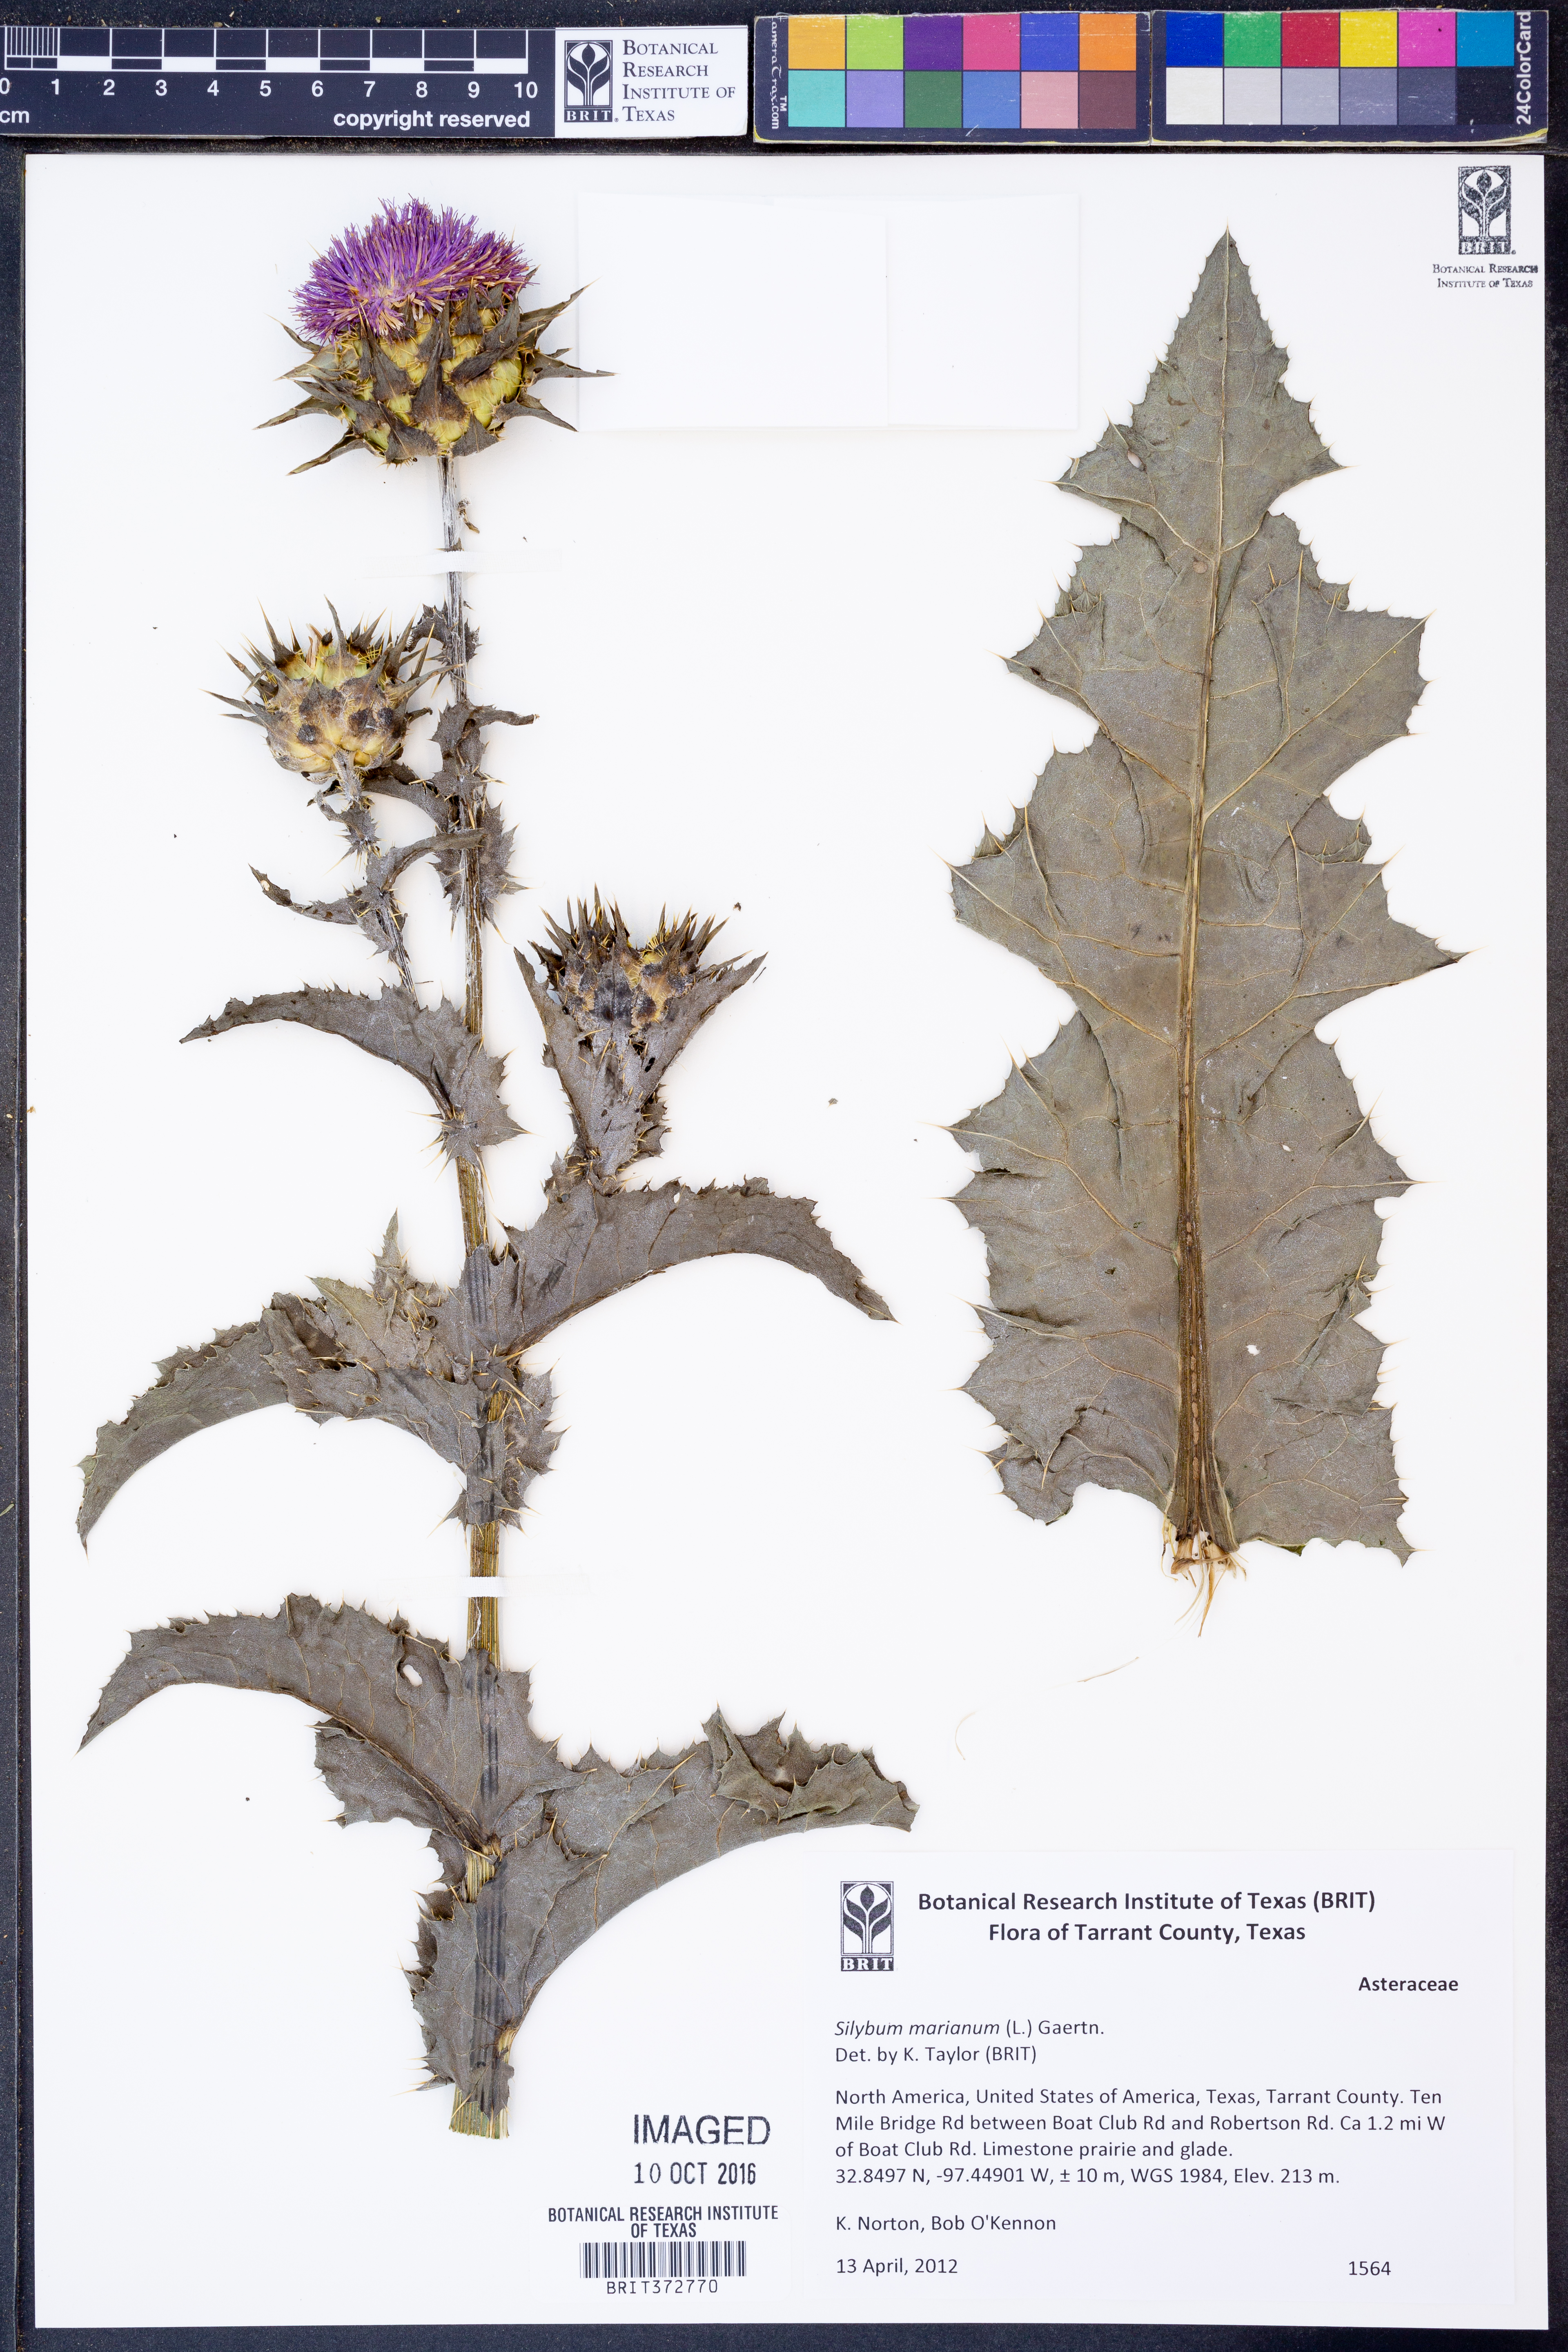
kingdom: Plantae
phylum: Tracheophyta
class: Magnoliopsida
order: Asterales
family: Asteraceae
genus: Silybum
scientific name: Silybum marianum
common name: Milk thistle
